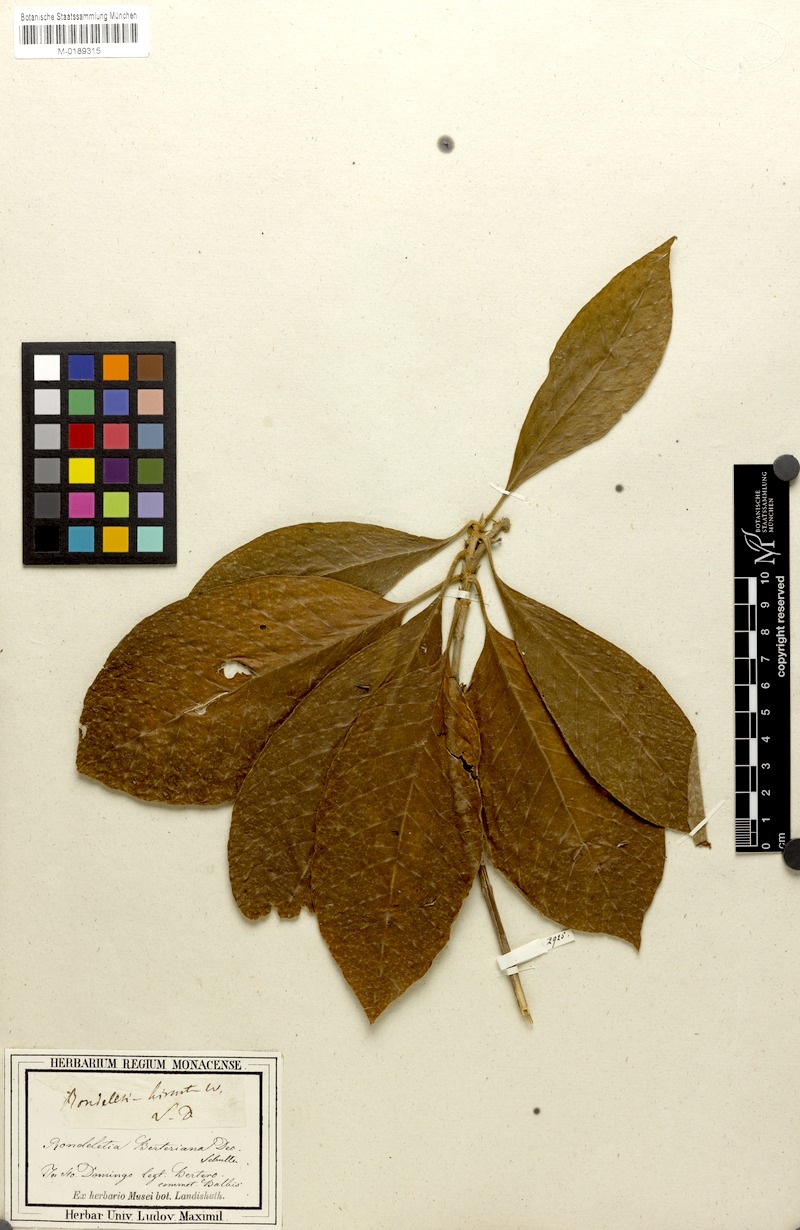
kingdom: Plantae
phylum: Tracheophyta
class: Magnoliopsida
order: Gentianales
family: Rubiaceae
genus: Rondeletia
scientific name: Rondeletia berteroana
